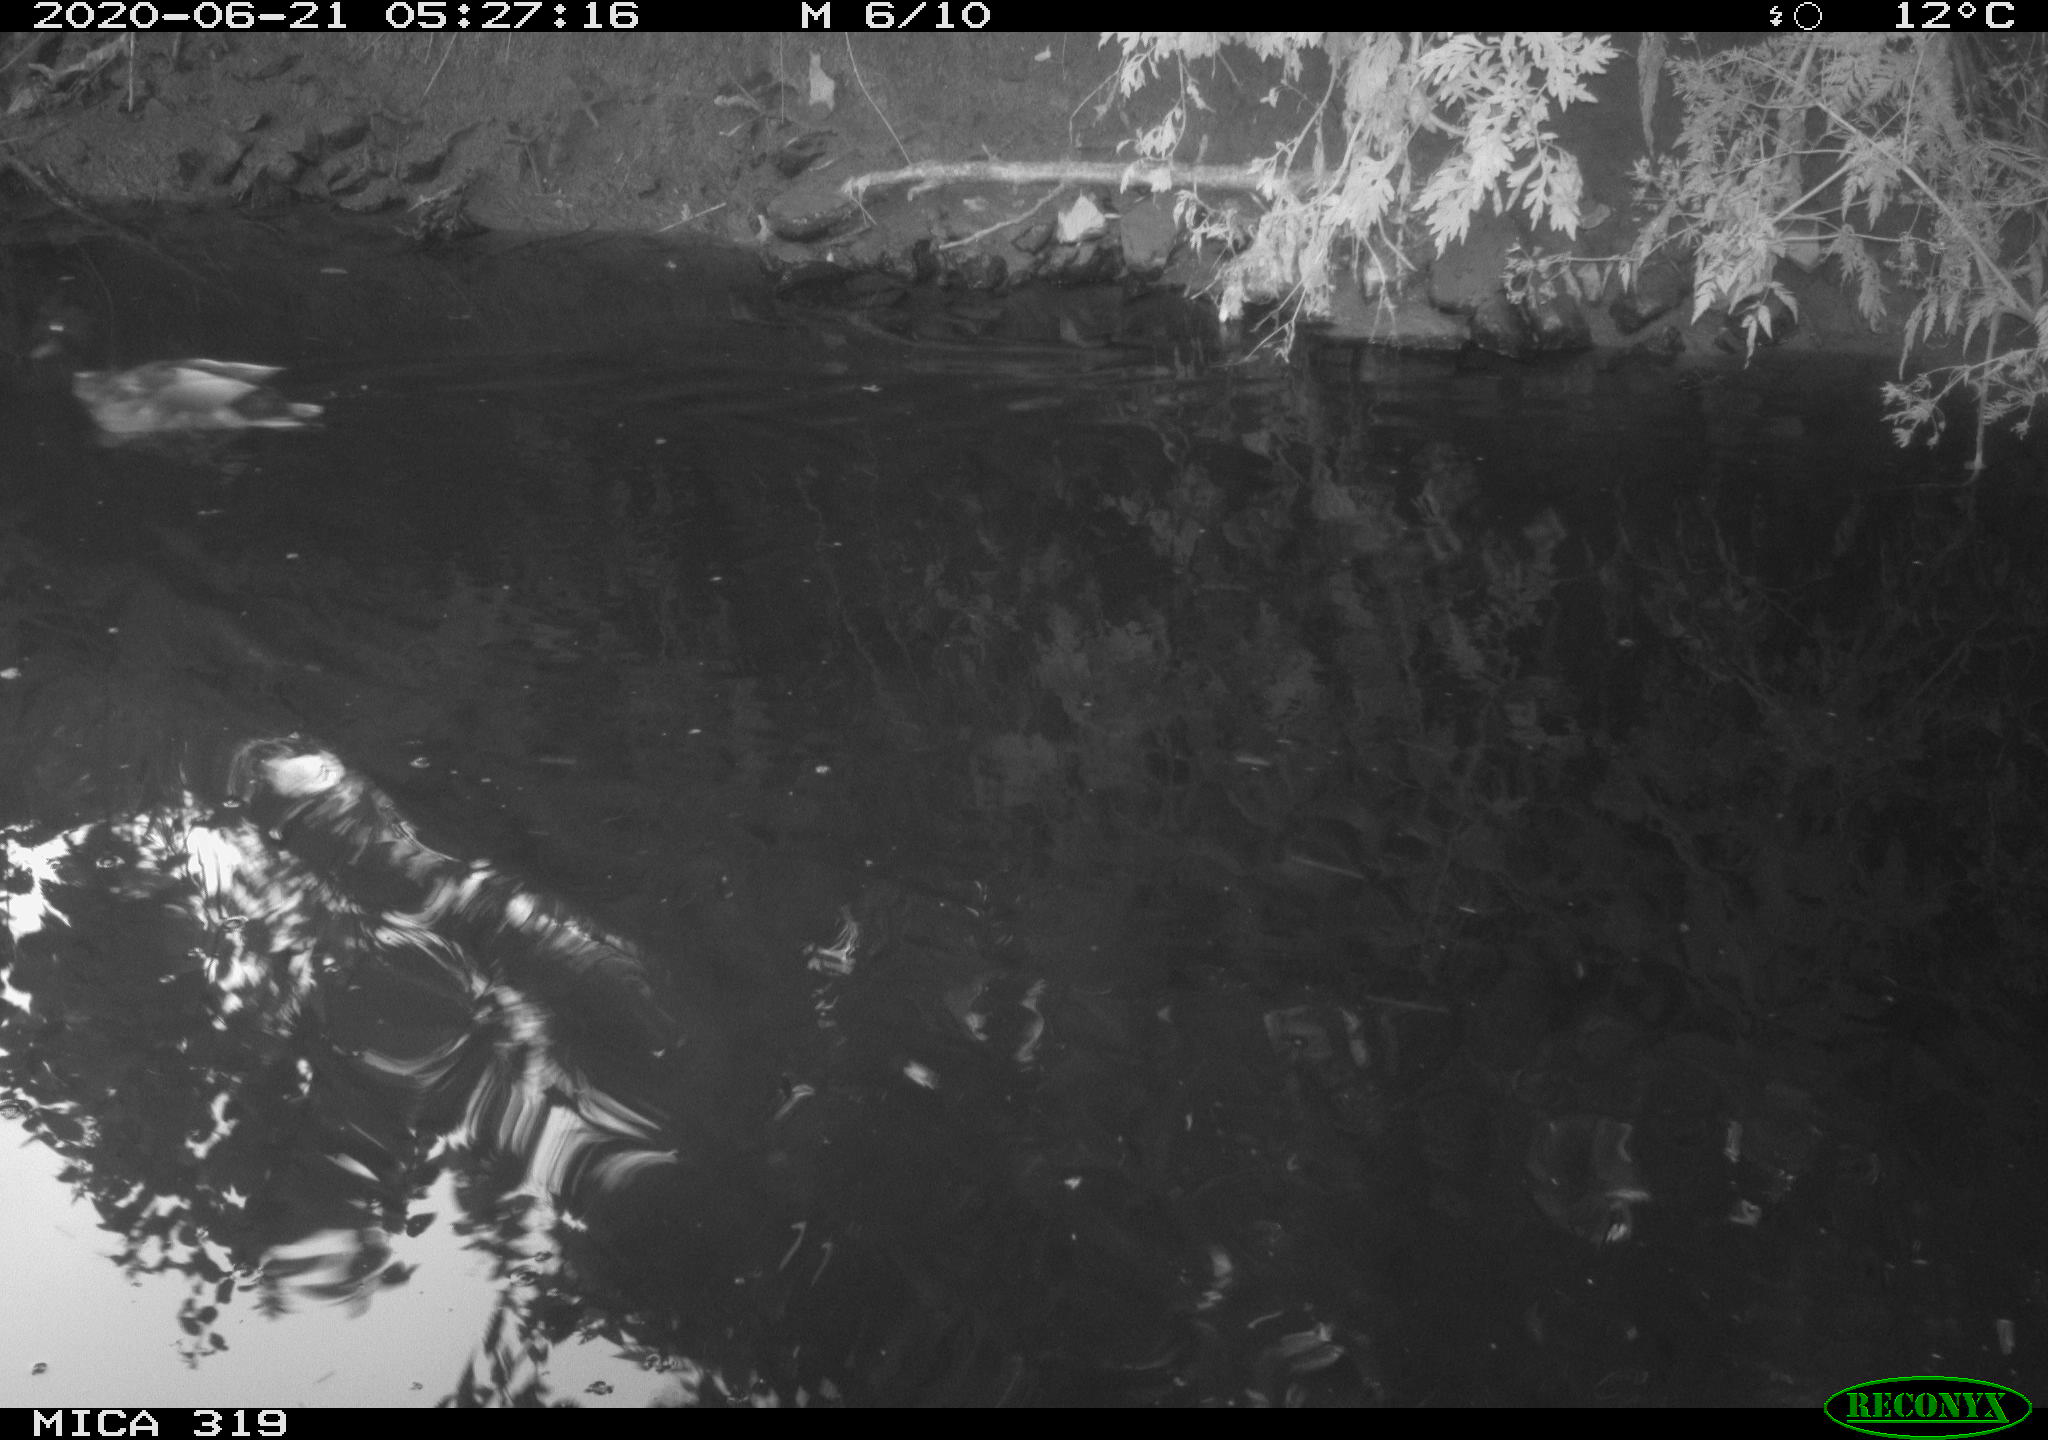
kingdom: Animalia
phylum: Chordata
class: Aves
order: Anseriformes
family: Anatidae
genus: Anas
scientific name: Anas platyrhynchos
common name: Mallard
